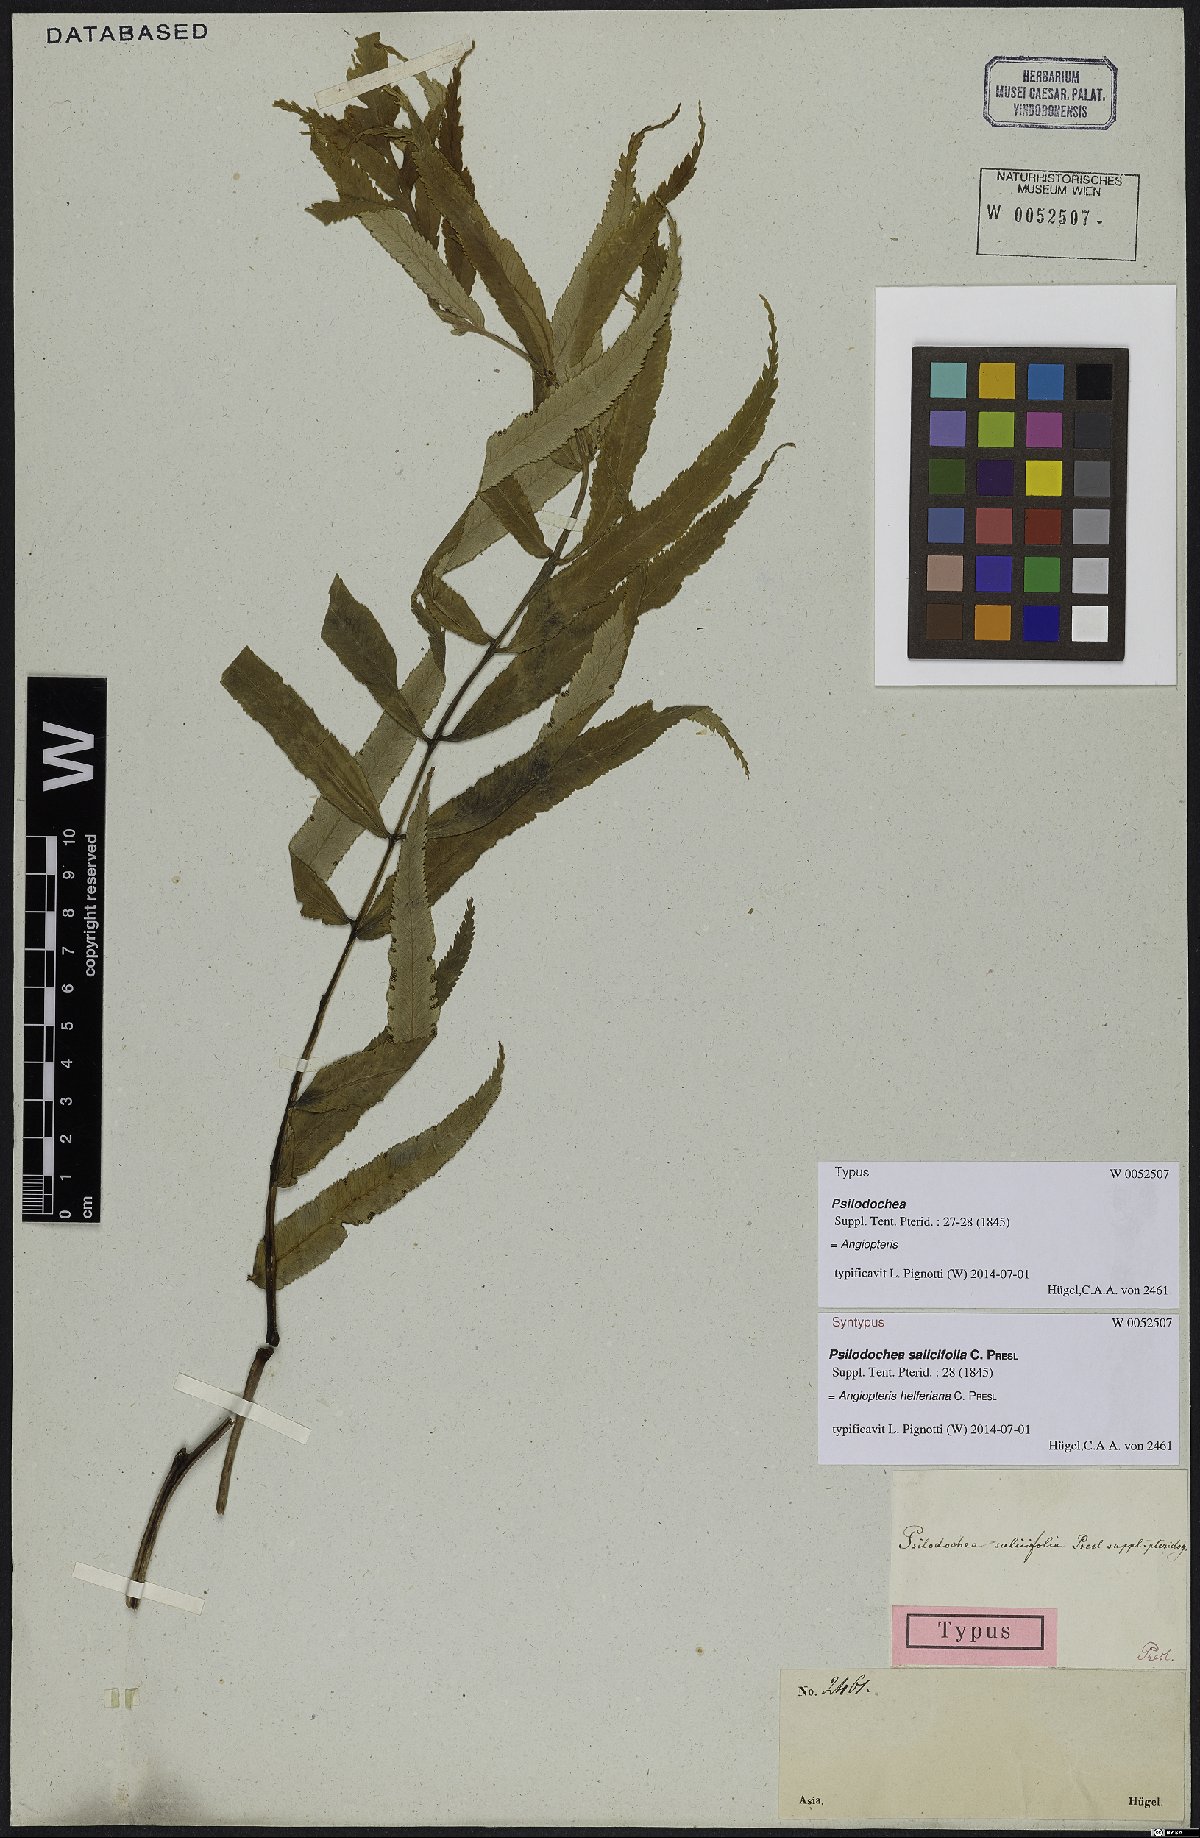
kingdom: Plantae
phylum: Tracheophyta
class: Polypodiopsida
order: Marattiales
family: Marattiaceae
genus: Angiopteris
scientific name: Angiopteris helferiana
